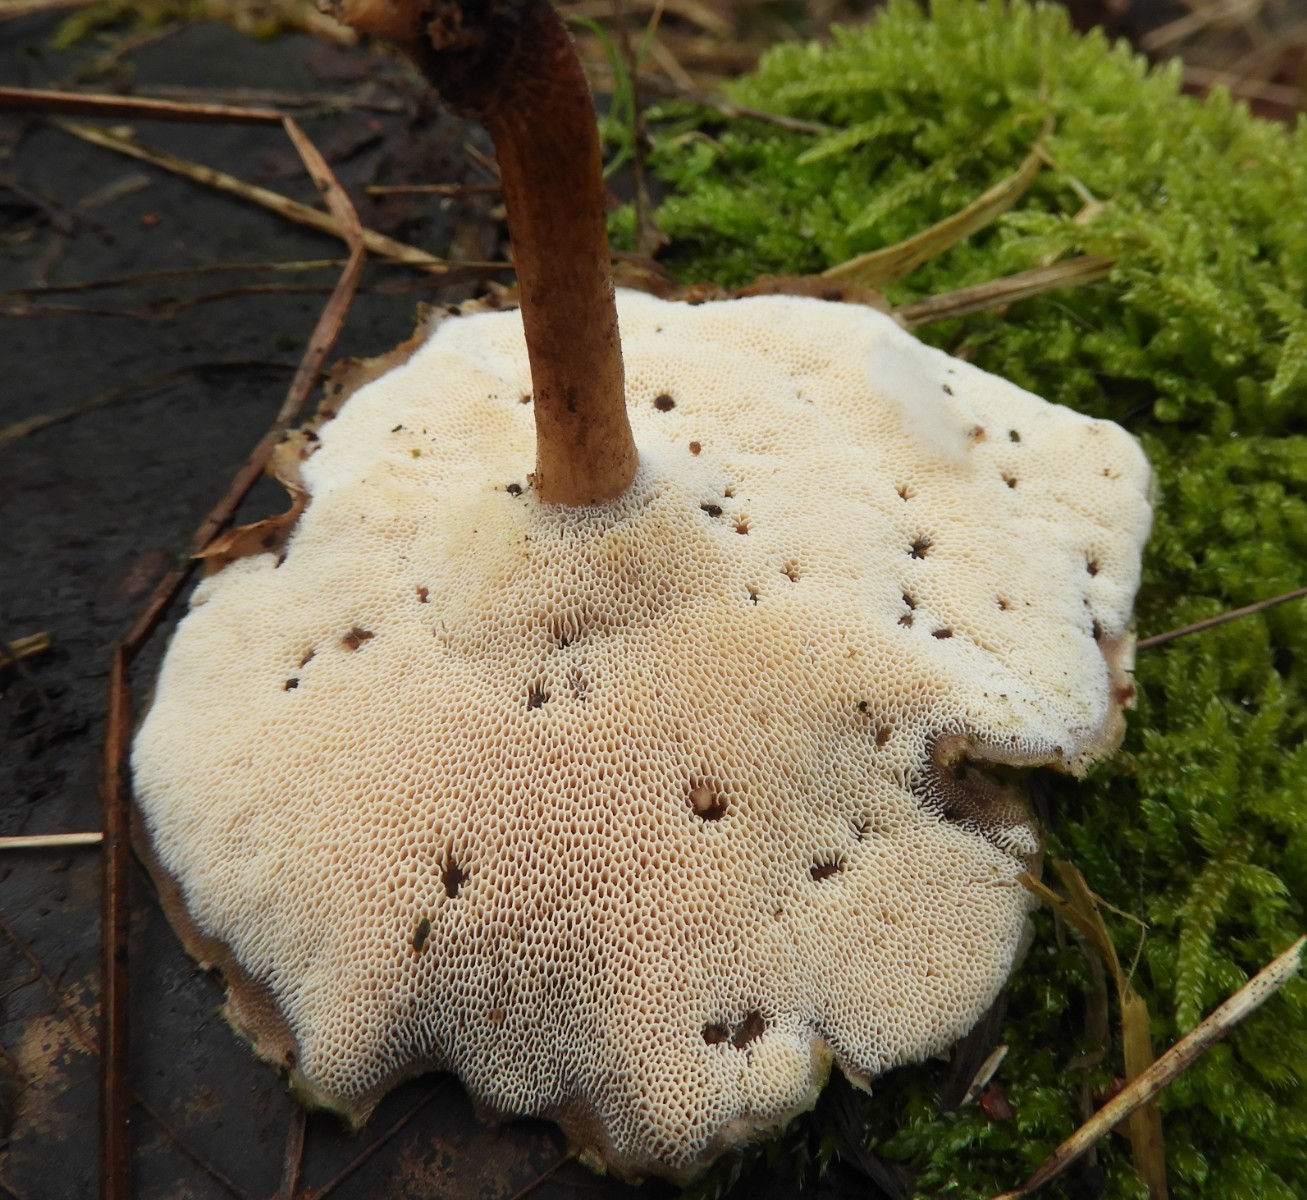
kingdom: Fungi
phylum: Basidiomycota
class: Agaricomycetes
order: Polyporales
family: Polyporaceae
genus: Lentinus
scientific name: Lentinus brumalis
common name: vinter-stilkporesvamp
